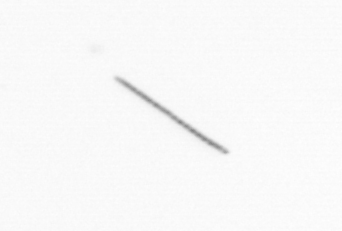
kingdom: Chromista
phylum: Ochrophyta
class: Bacillariophyceae
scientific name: Bacillariophyceae
